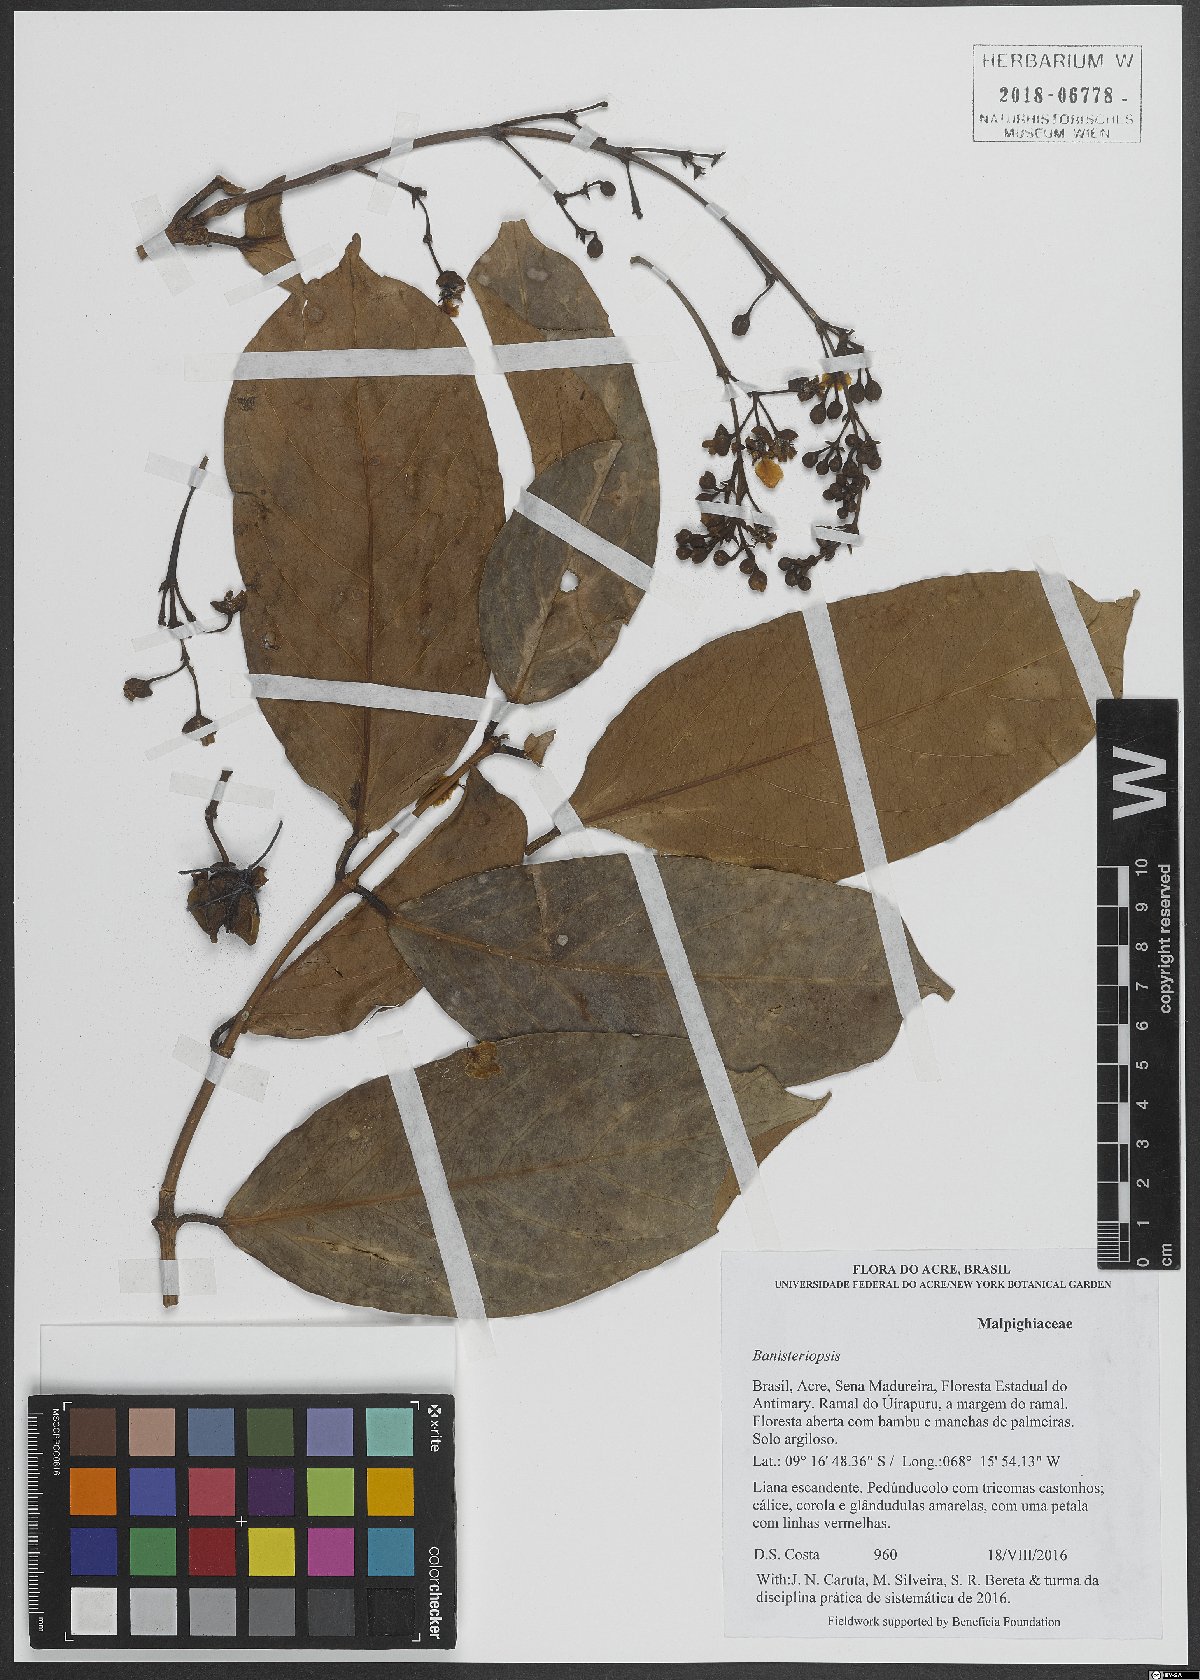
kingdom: Plantae
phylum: Tracheophyta
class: Magnoliopsida
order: Malpighiales
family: Malpighiaceae
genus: Banisteriopsis
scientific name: Banisteriopsis
